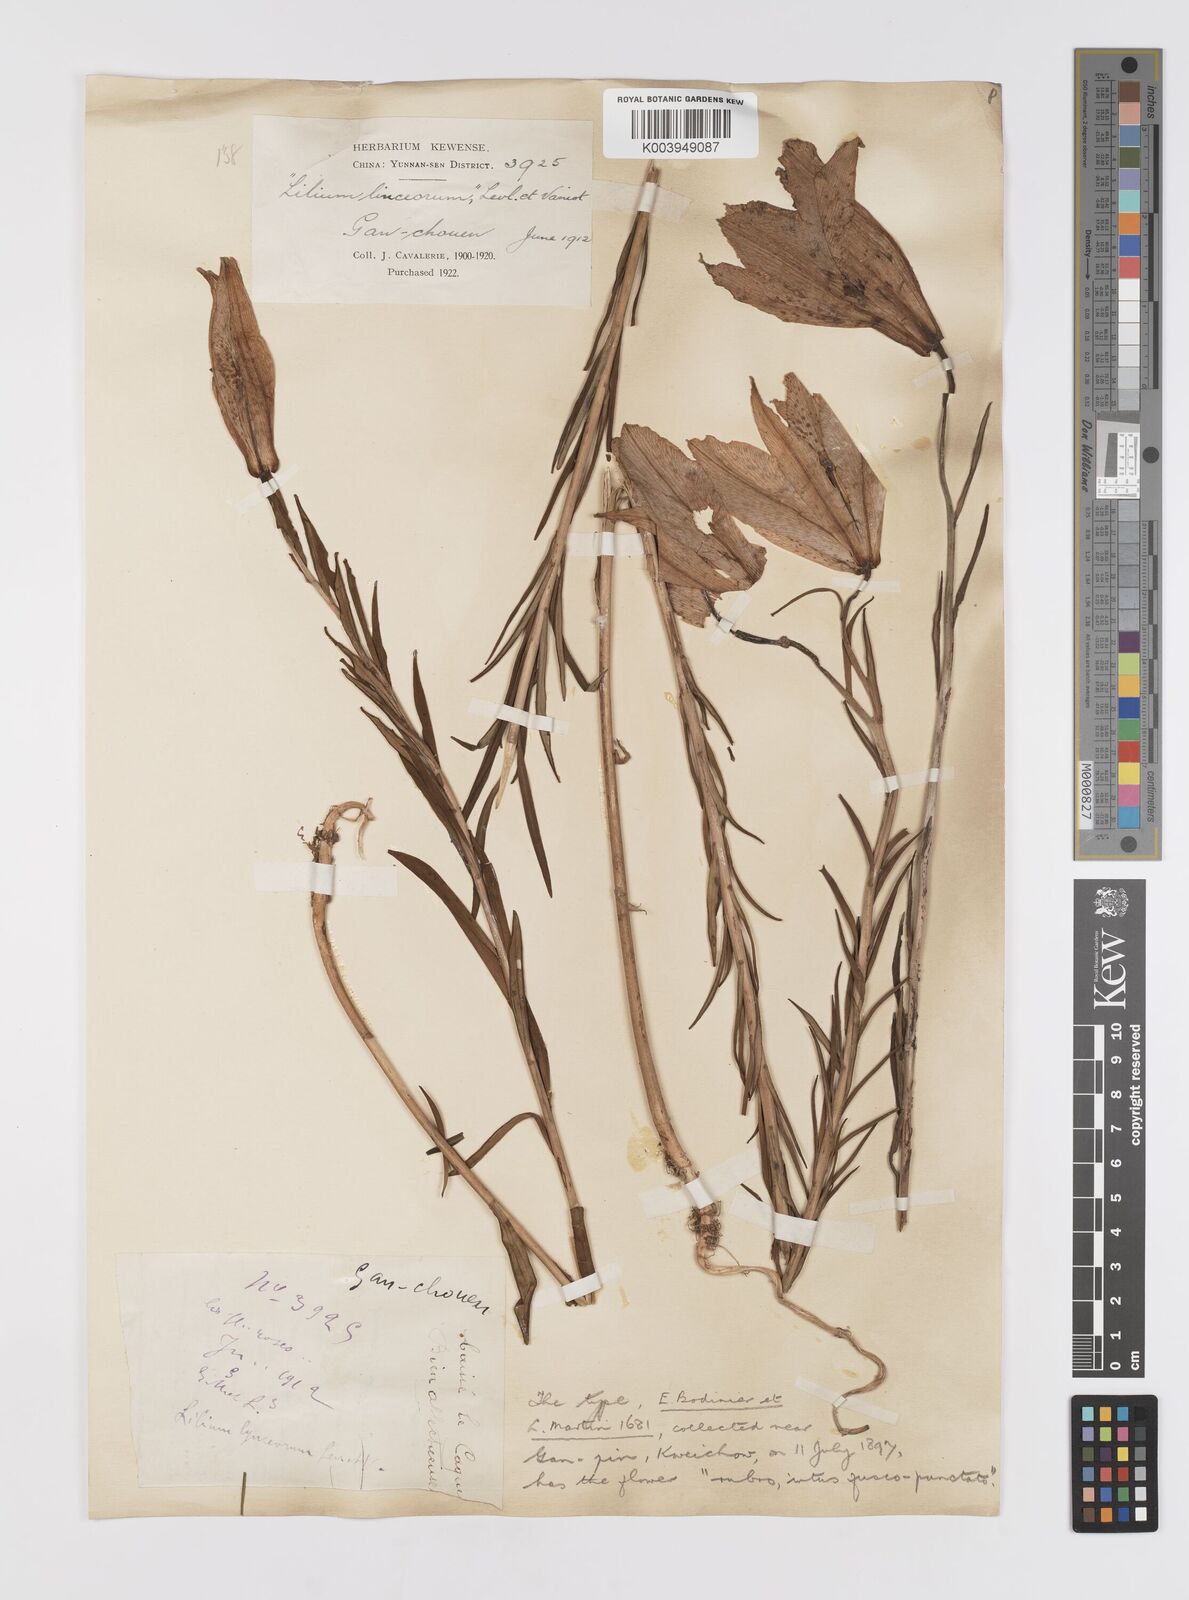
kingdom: Plantae
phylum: Tracheophyta
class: Liliopsida
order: Liliales
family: Liliaceae
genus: Lilium
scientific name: Lilium bakerianum
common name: Baker's lily
